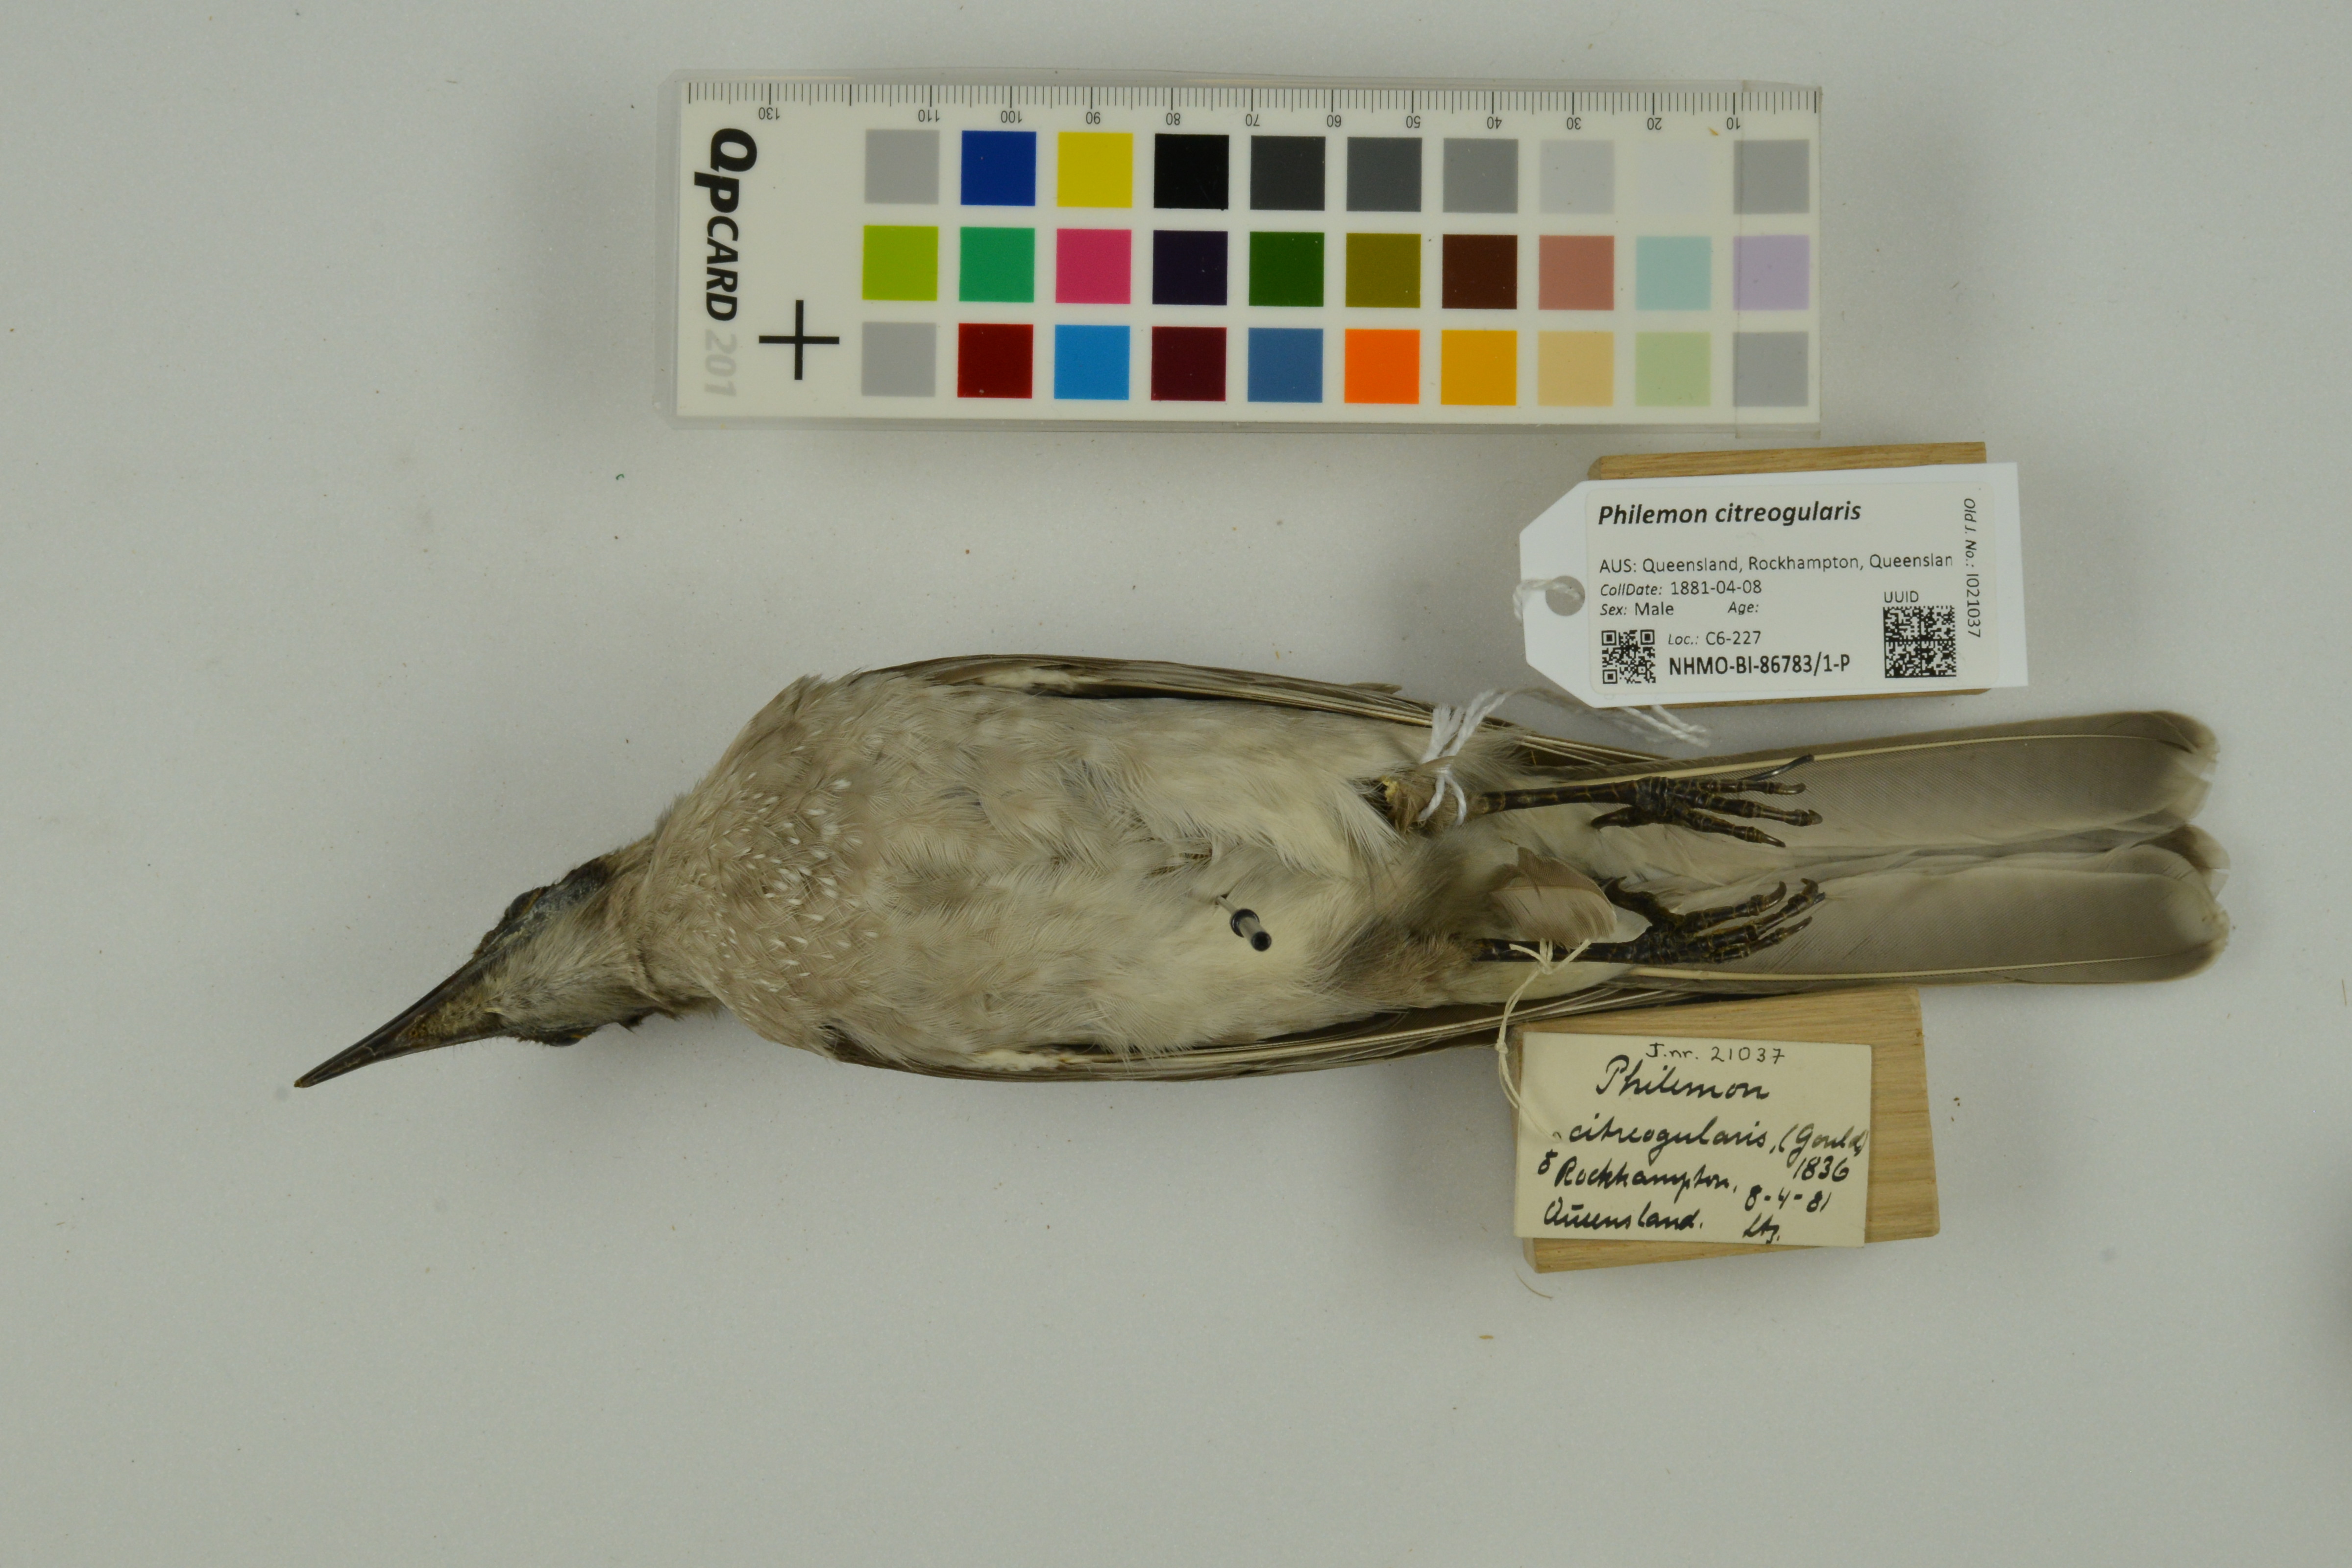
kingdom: Animalia
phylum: Chordata
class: Aves
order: Passeriformes
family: Meliphagidae
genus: Philemon
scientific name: Philemon citreogularis
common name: Little friarbird
